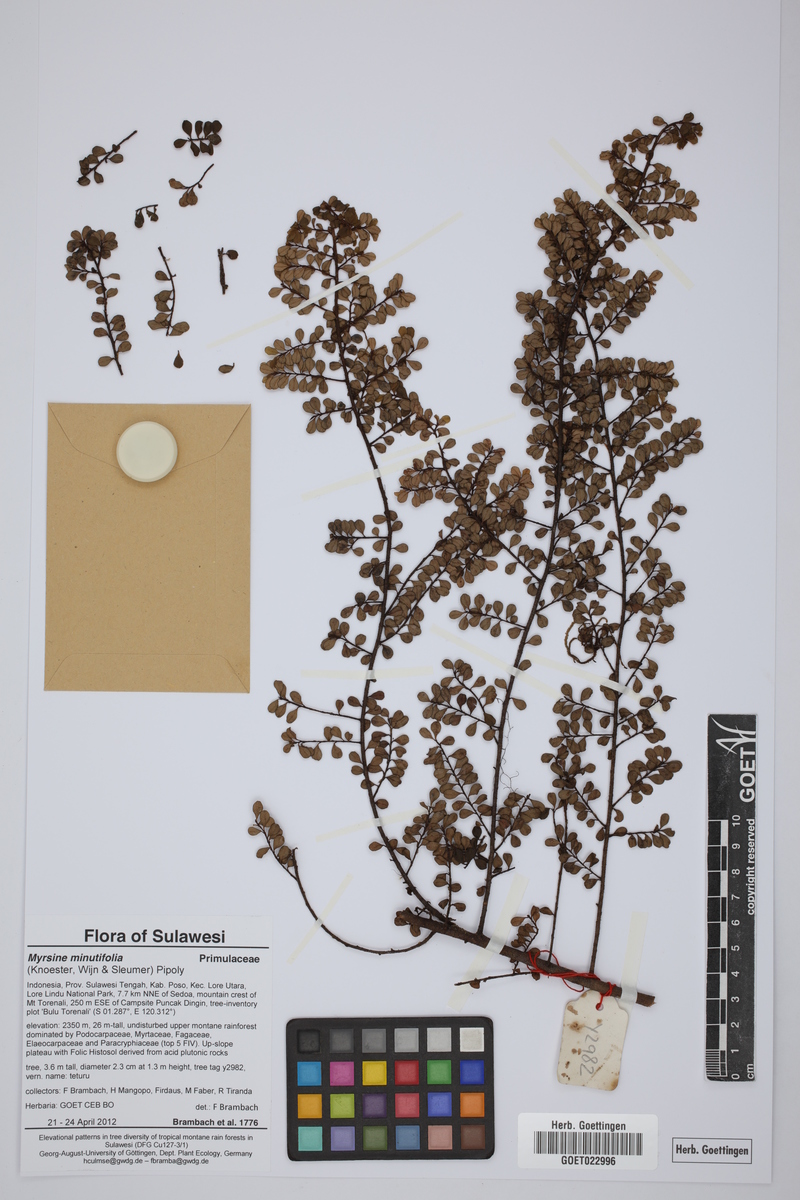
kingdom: Plantae
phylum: Tracheophyta
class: Magnoliopsida
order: Ericales
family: Primulaceae
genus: Myrsine
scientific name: Myrsine minutifolia
